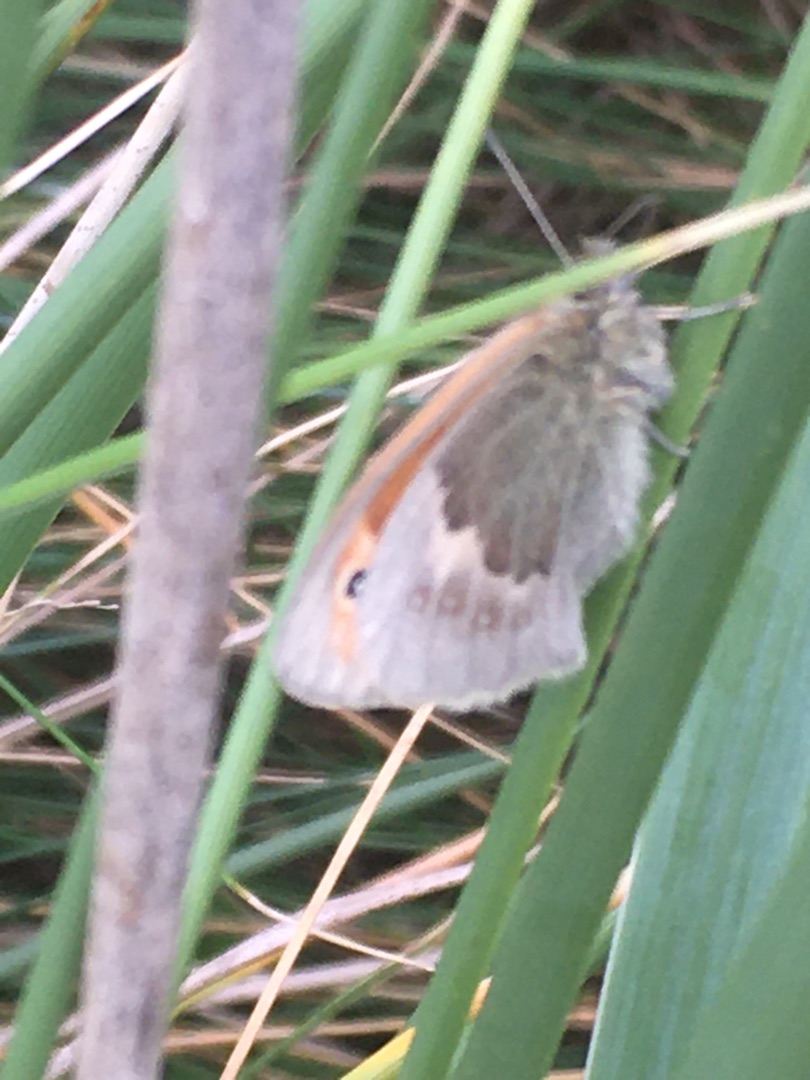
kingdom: Animalia
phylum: Arthropoda
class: Insecta
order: Lepidoptera
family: Nymphalidae
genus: Coenonympha
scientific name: Coenonympha pamphilus
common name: Okkergul randøje
